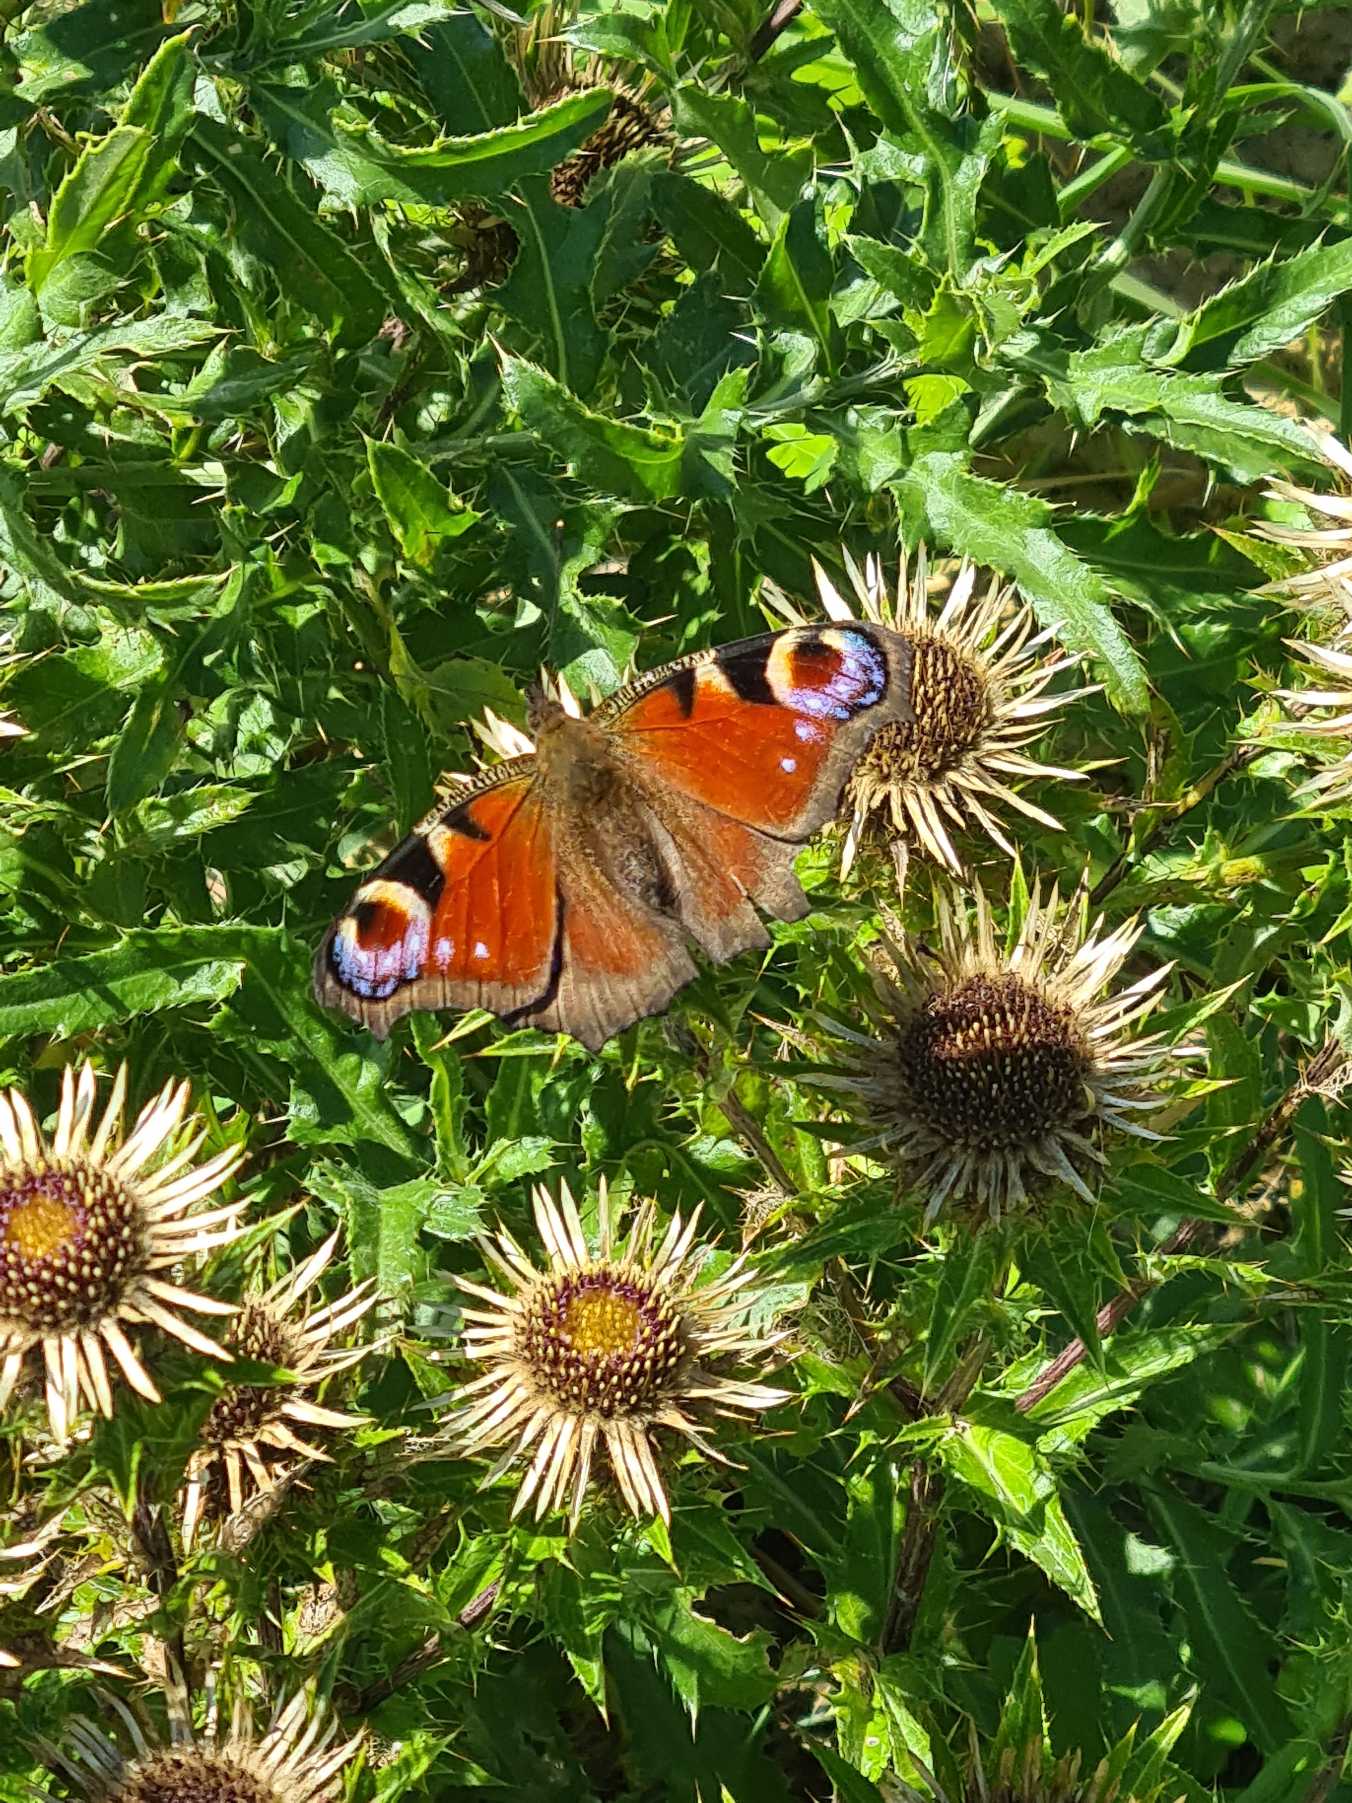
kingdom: Animalia
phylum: Arthropoda
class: Insecta
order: Lepidoptera
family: Nymphalidae
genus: Aglais
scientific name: Aglais io
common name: Dagpåfugleøje
